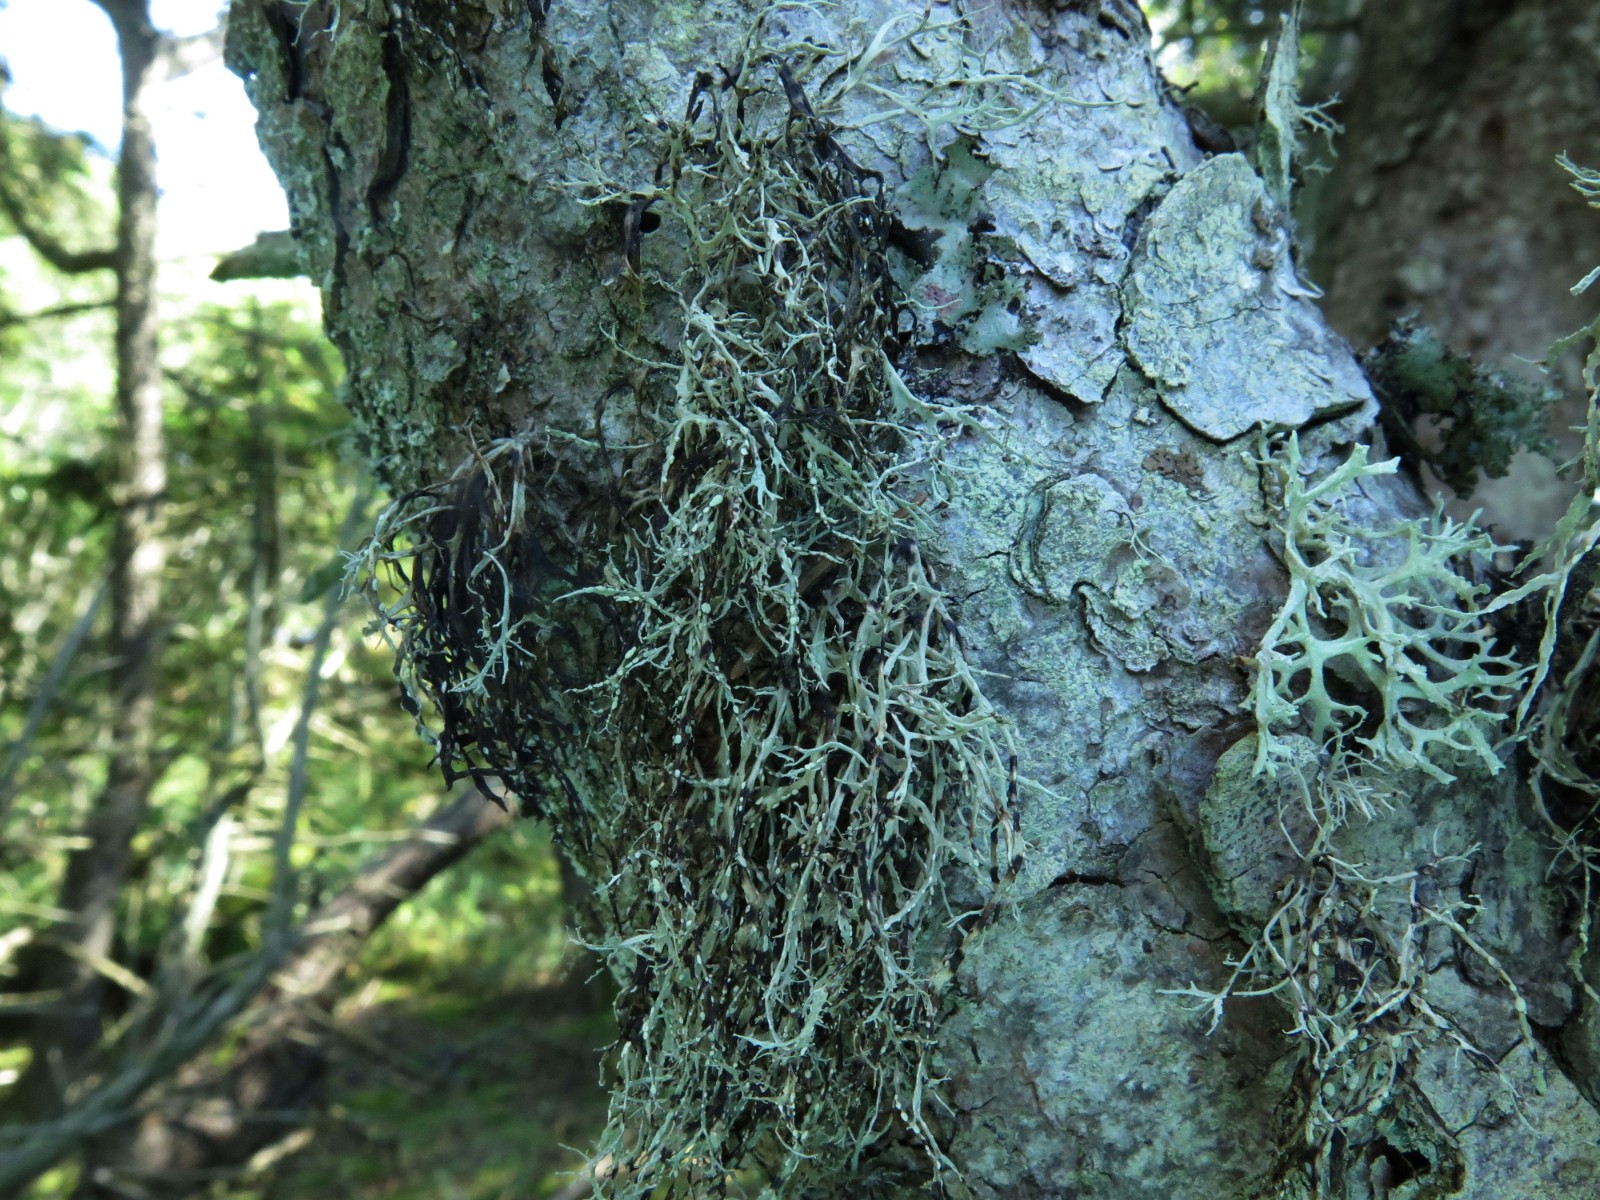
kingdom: Fungi
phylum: Ascomycota
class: Lecanoromycetes
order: Lecanorales
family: Ramalinaceae
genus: Ramalina
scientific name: Ramalina farinacea
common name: melet grenlav
